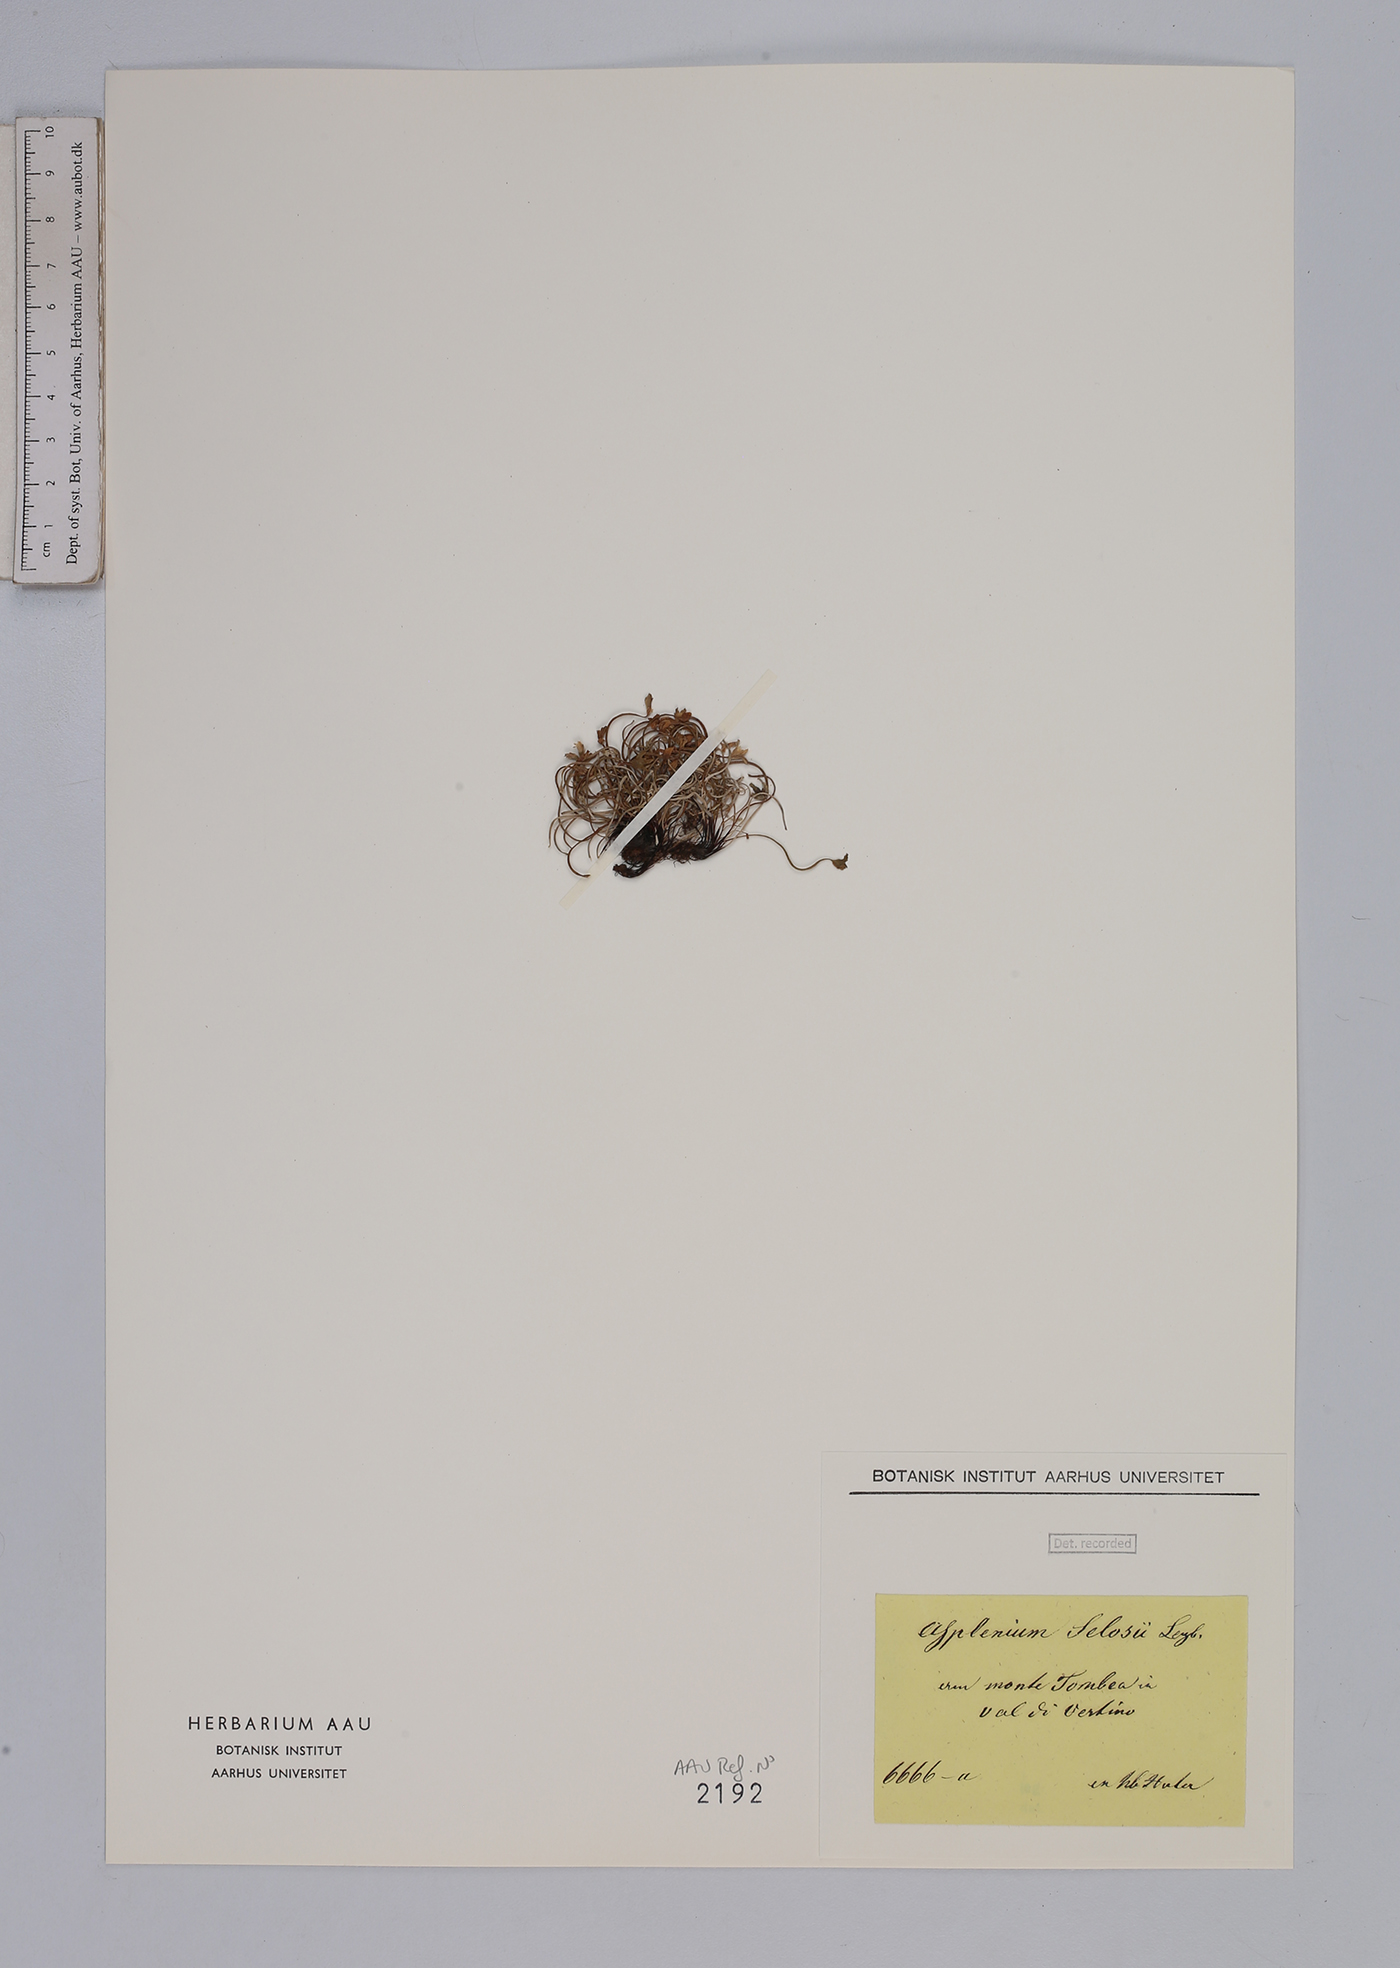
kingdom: Plantae
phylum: Tracheophyta
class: Polypodiopsida
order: Polypodiales
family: Aspleniaceae
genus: Asplenium
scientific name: Asplenium seelosii
